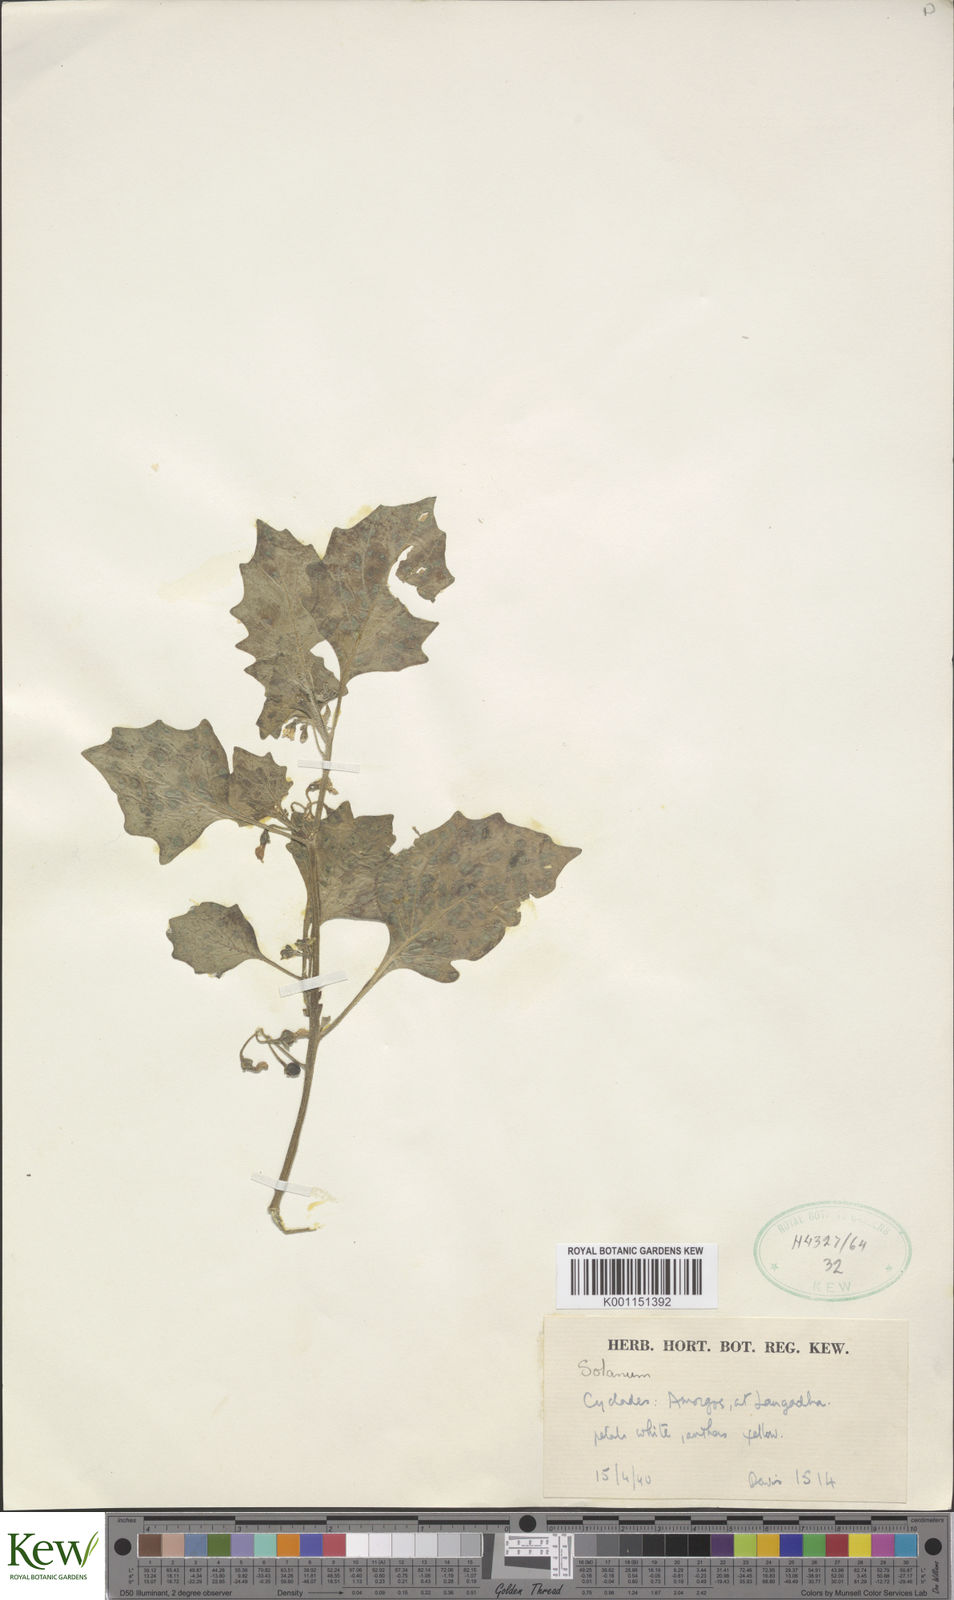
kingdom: Plantae
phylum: Tracheophyta
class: Magnoliopsida
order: Solanales
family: Solanaceae
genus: Solanum
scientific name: Solanum villosum
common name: Red nightshade
